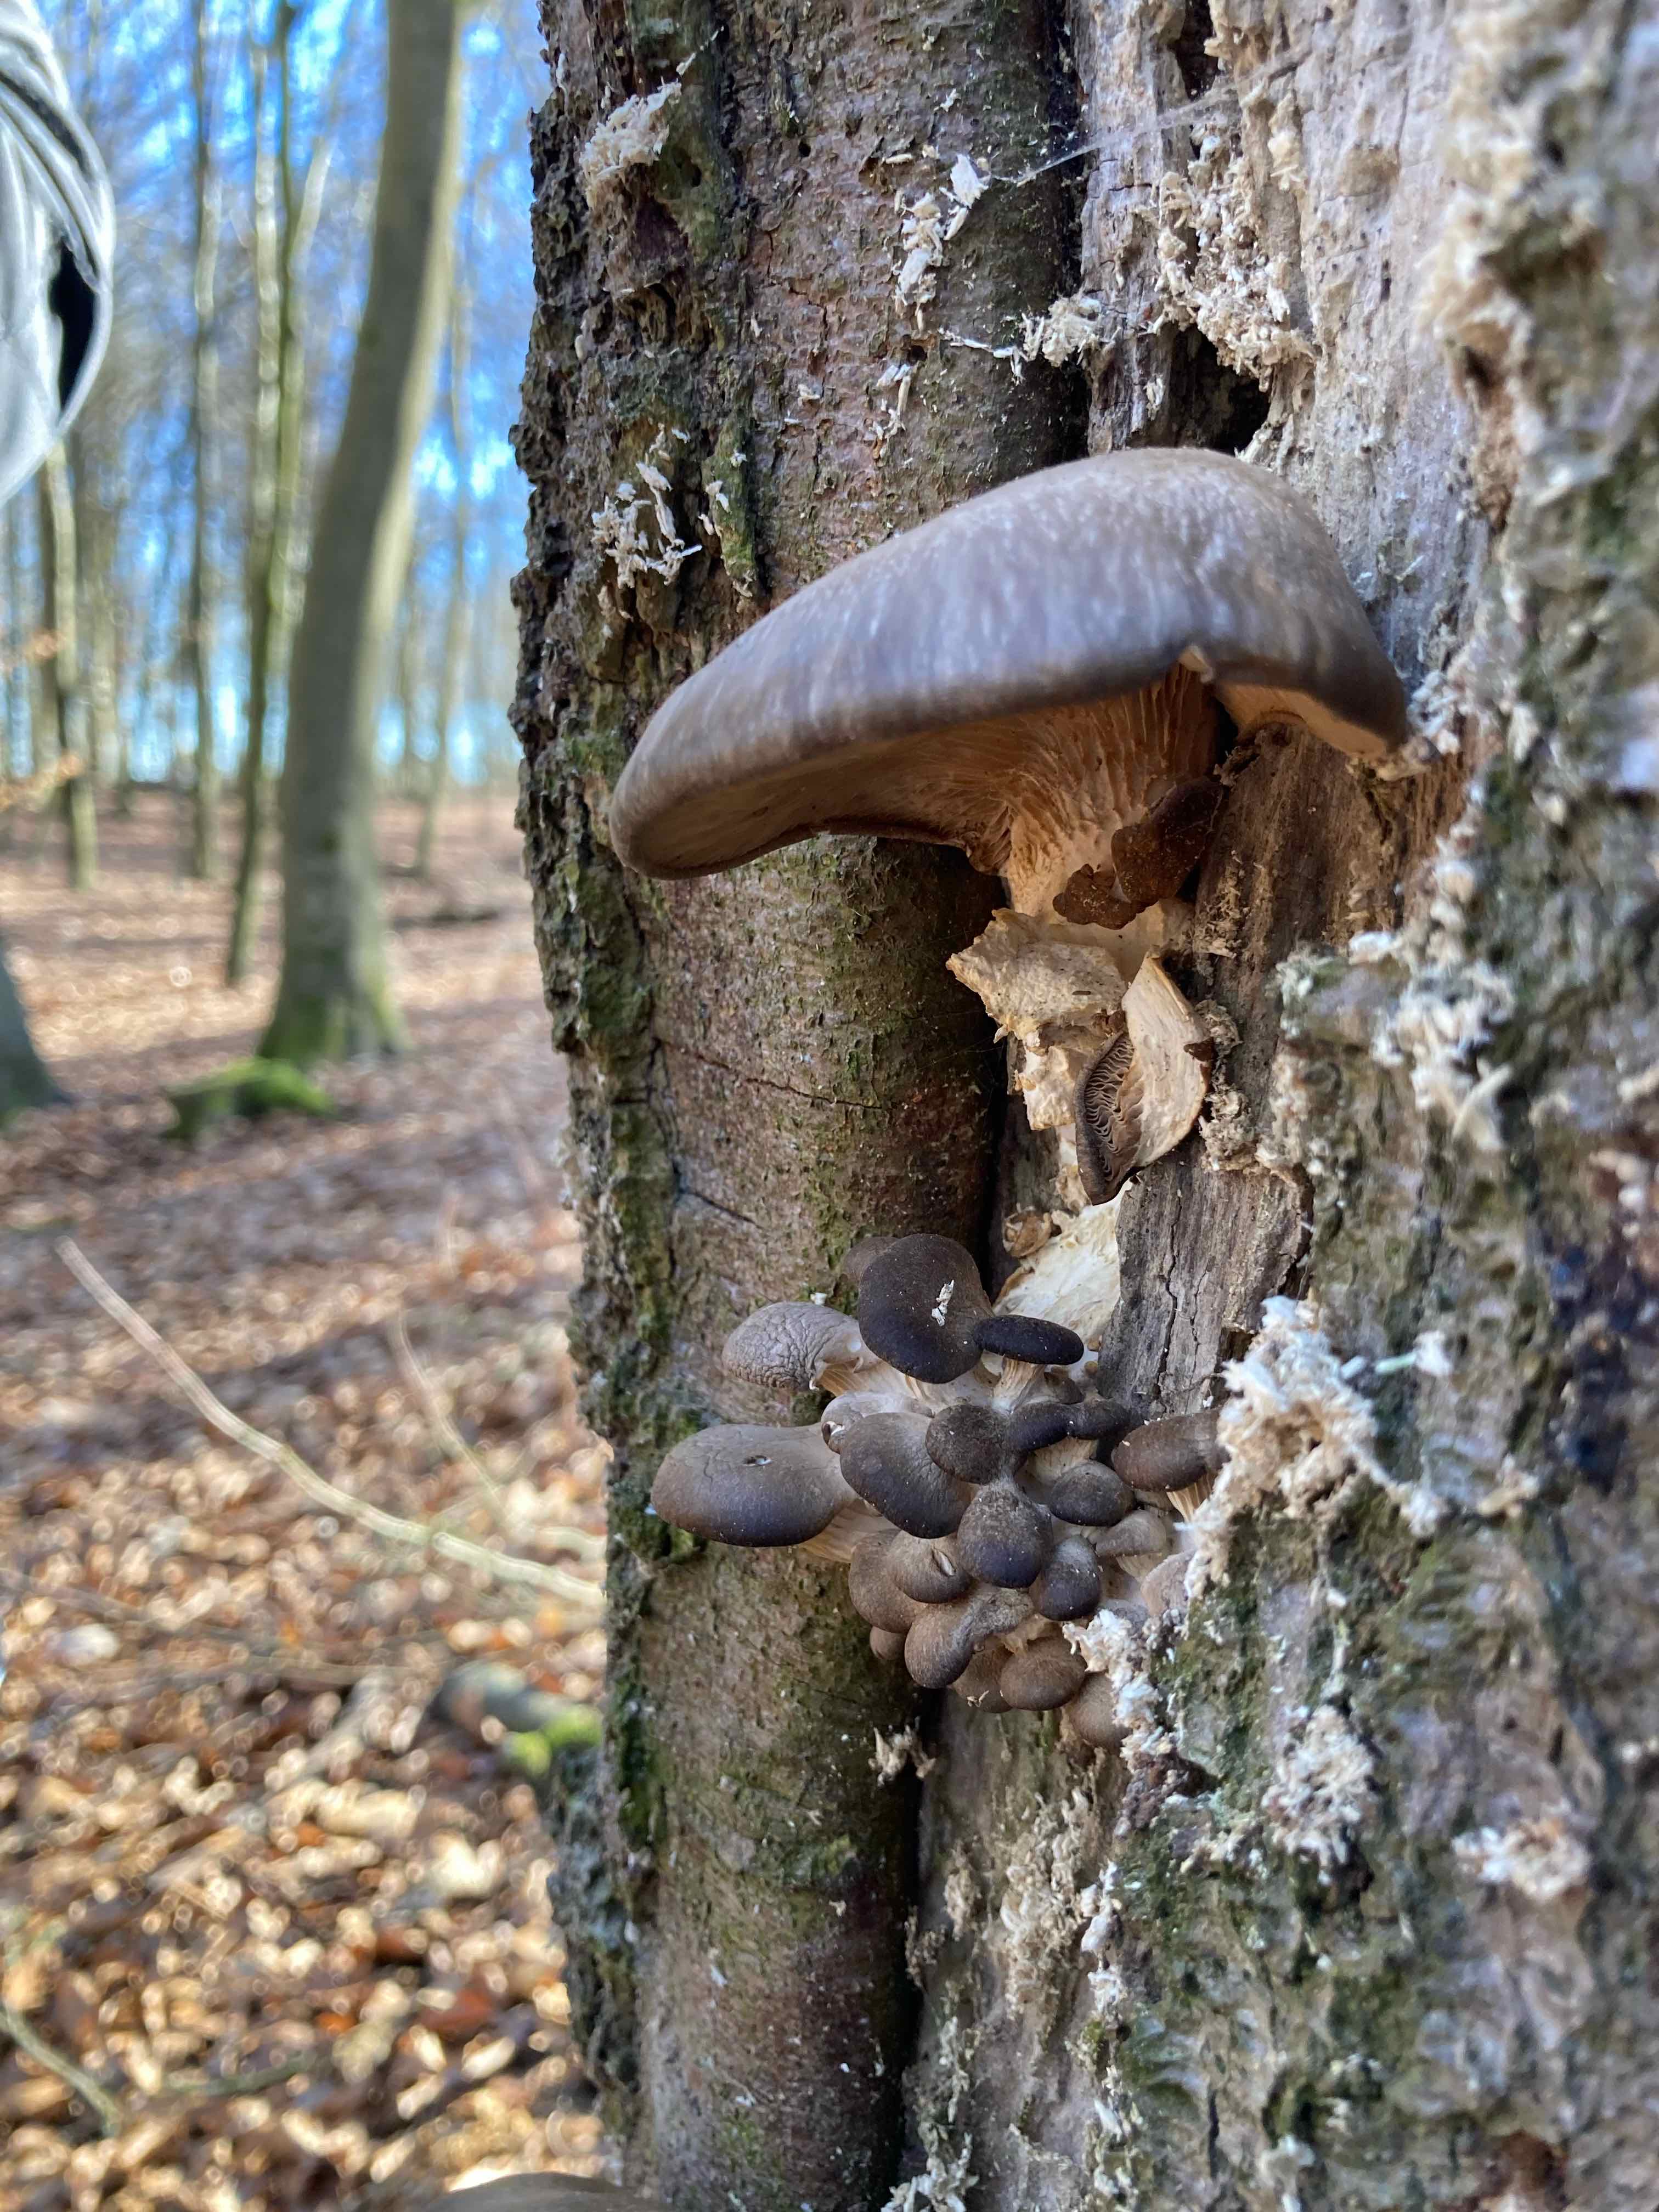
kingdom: Fungi
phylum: Basidiomycota
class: Agaricomycetes
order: Agaricales
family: Pleurotaceae
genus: Pleurotus
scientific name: Pleurotus ostreatus
